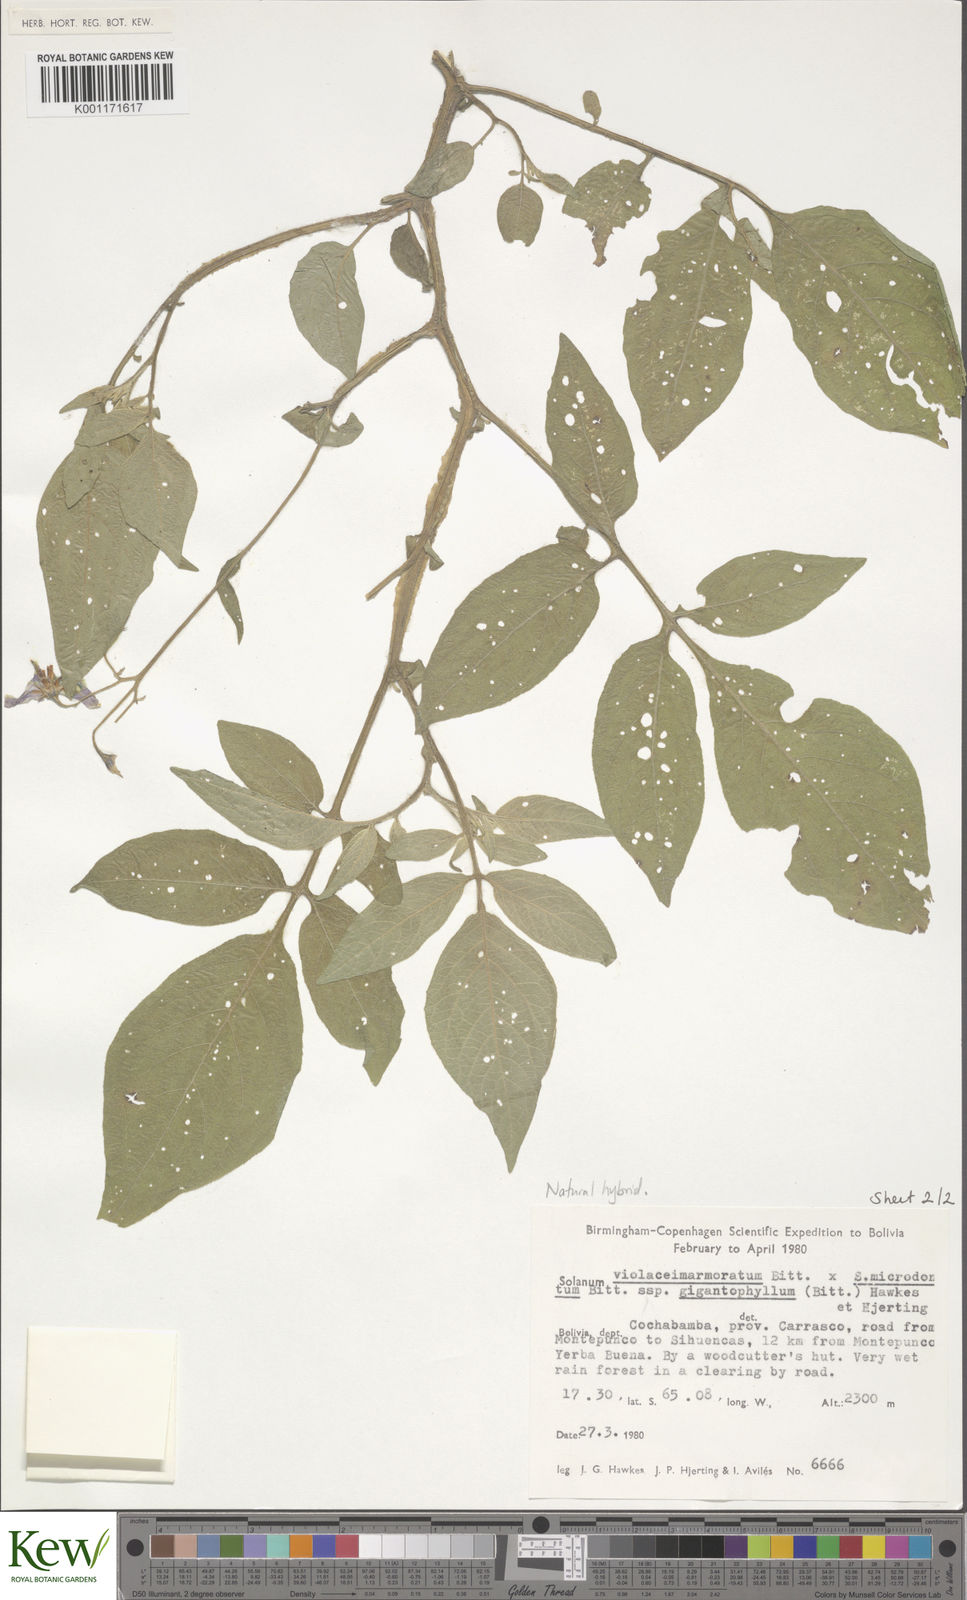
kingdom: Plantae
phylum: Tracheophyta
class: Magnoliopsida
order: Solanales
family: Solanaceae
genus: Solanum
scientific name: Solanum violaceimarmoratum
